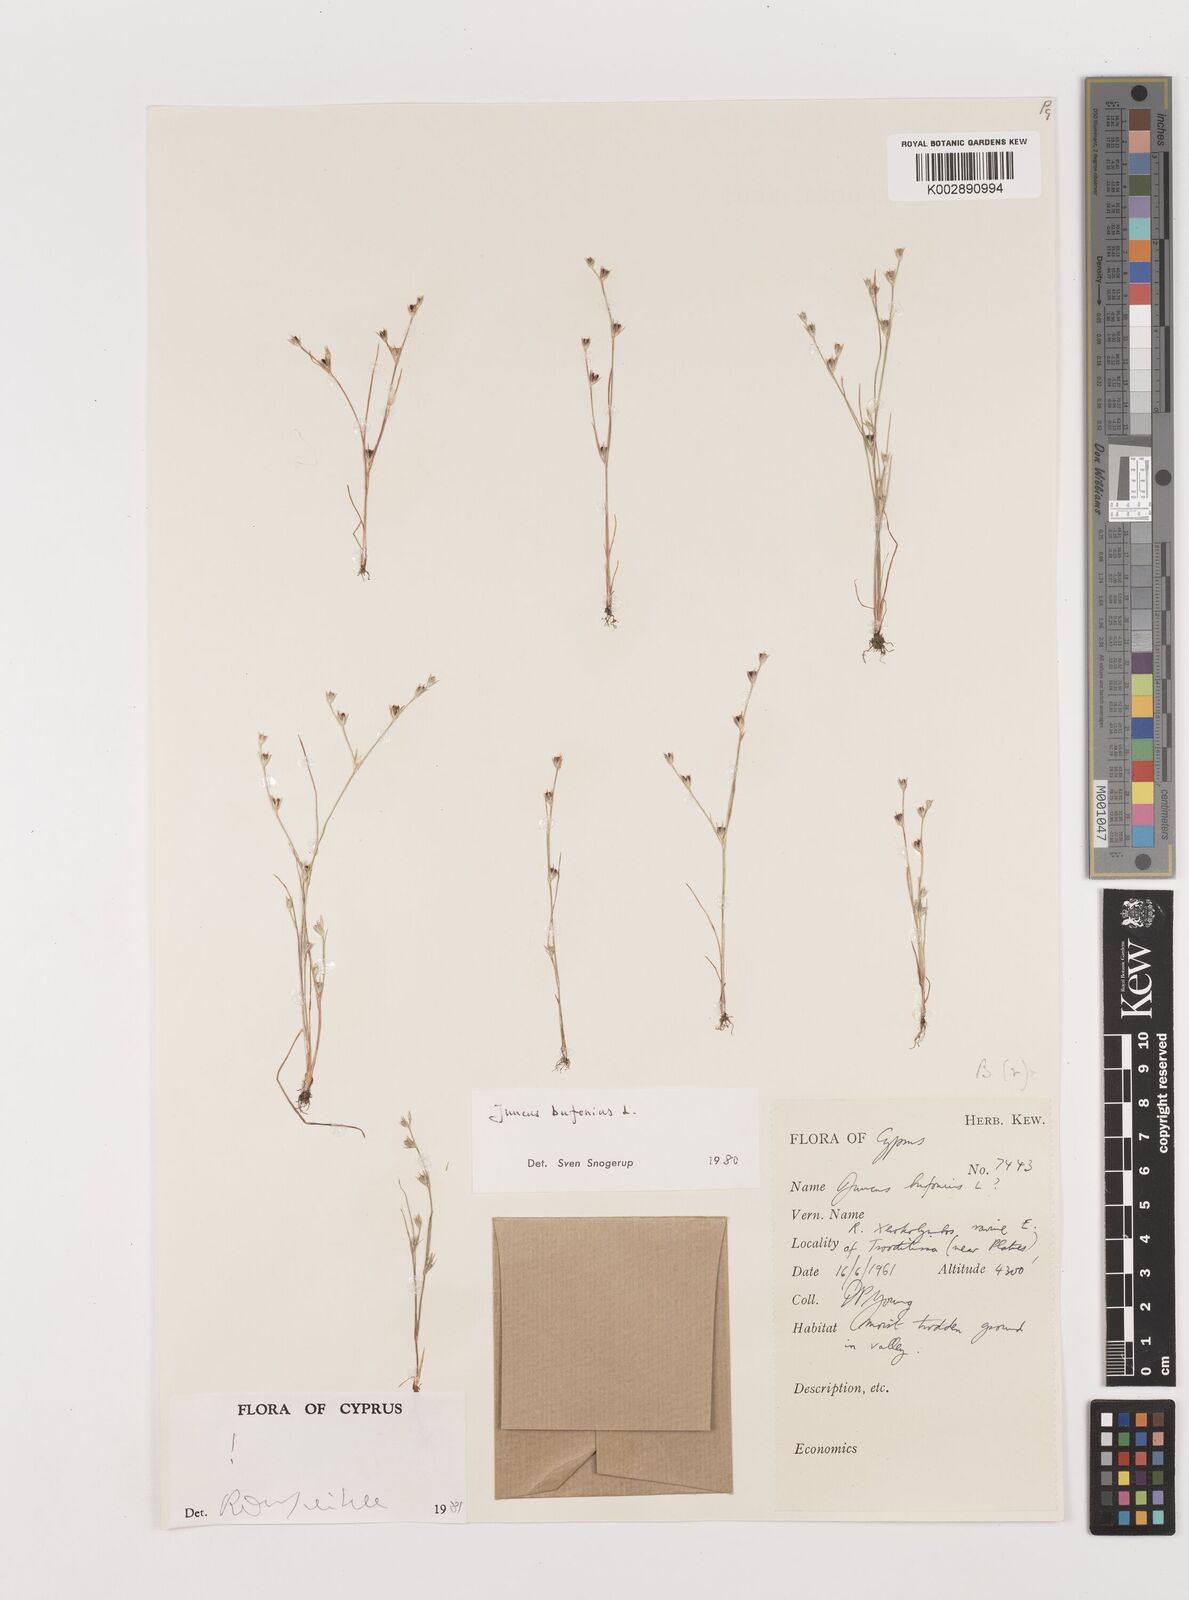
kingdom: Plantae
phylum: Tracheophyta
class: Liliopsida
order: Poales
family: Juncaceae
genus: Juncus
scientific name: Juncus bufonius
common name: Toad rush
